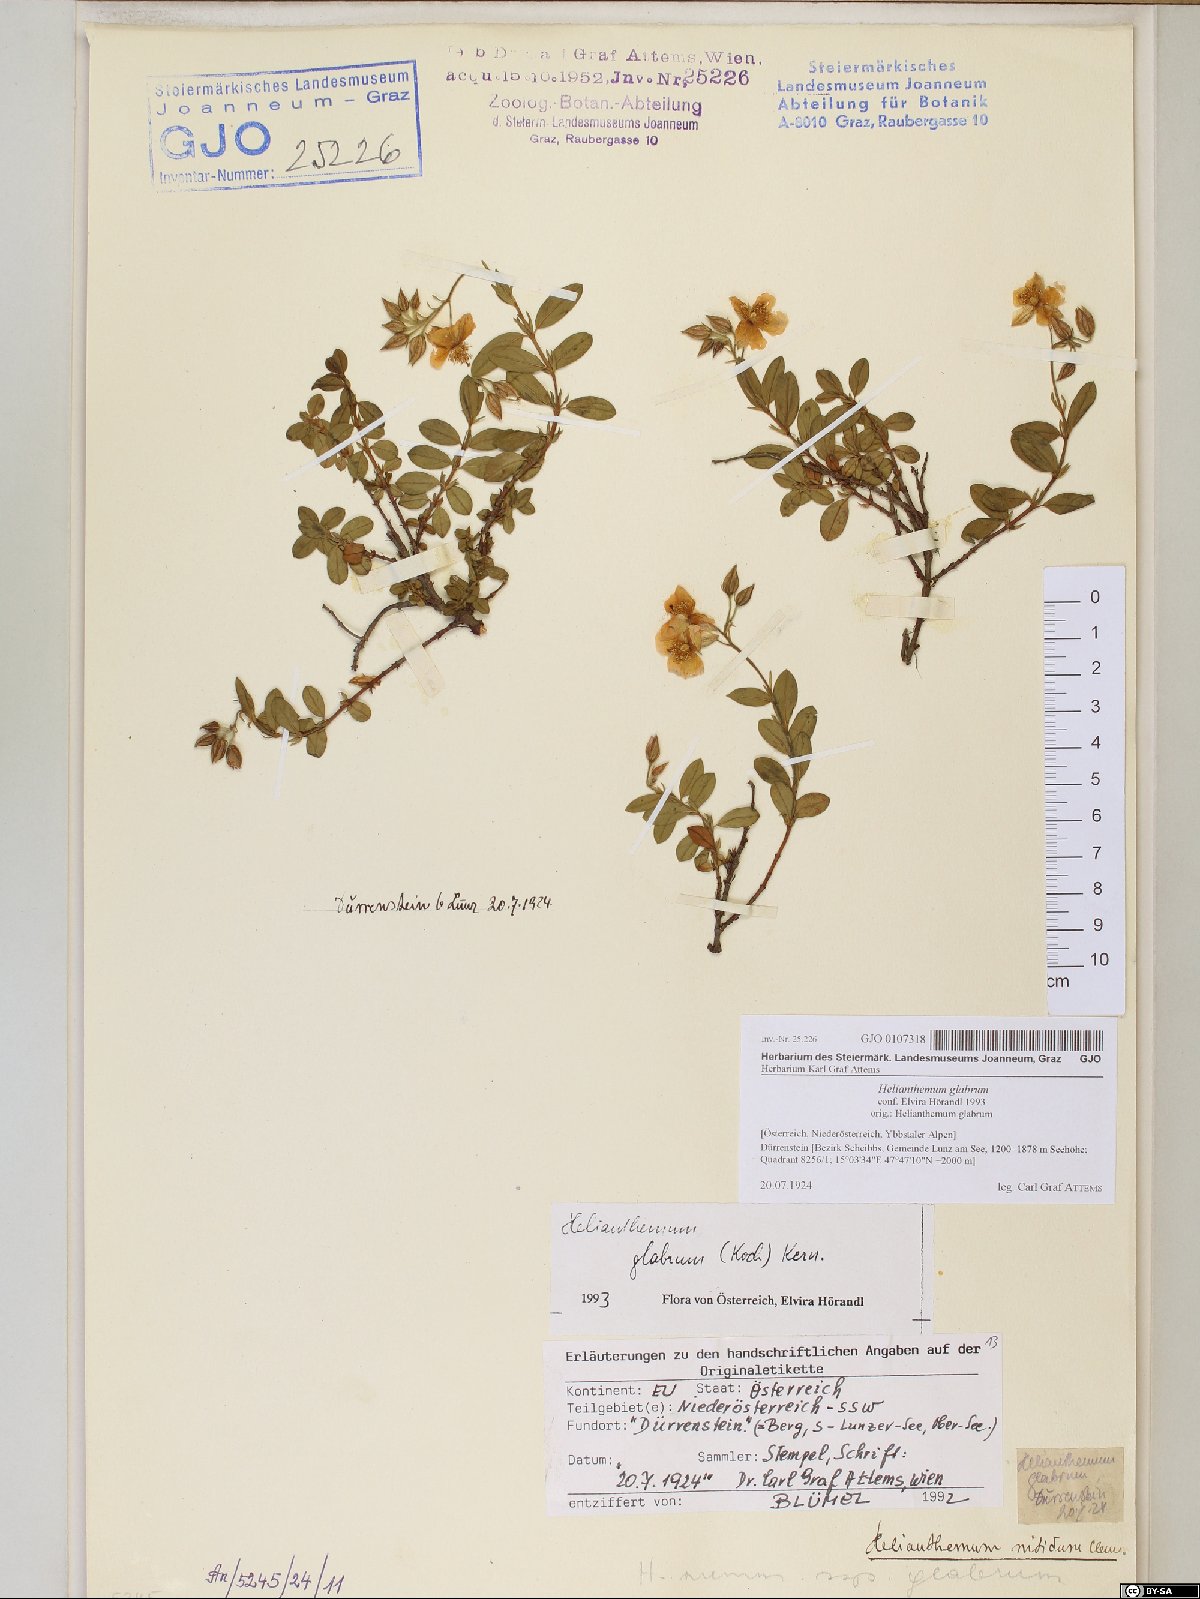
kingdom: Plantae
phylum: Tracheophyta
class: Magnoliopsida
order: Malvales
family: Cistaceae
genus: Helianthemum
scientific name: Helianthemum nummularium
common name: Common rock-rose
